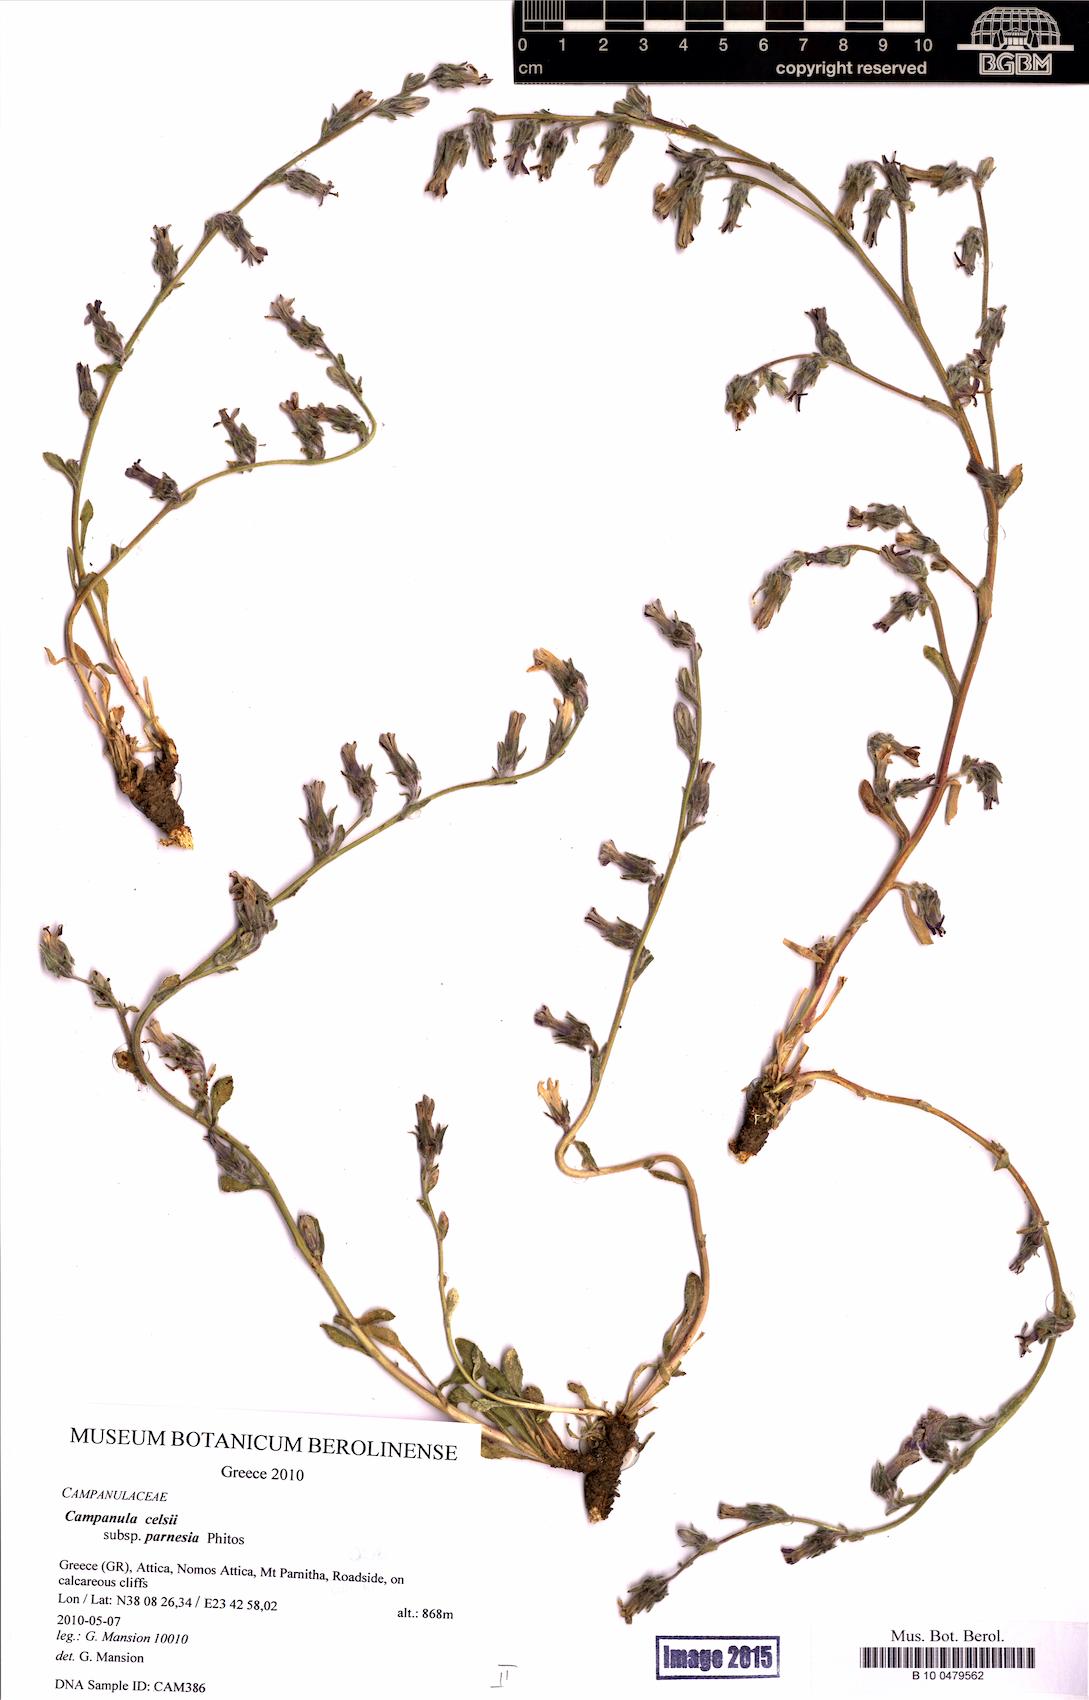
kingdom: Plantae
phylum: Tracheophyta
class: Magnoliopsida
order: Asterales
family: Campanulaceae
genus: Campanula
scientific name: Campanula celsii
